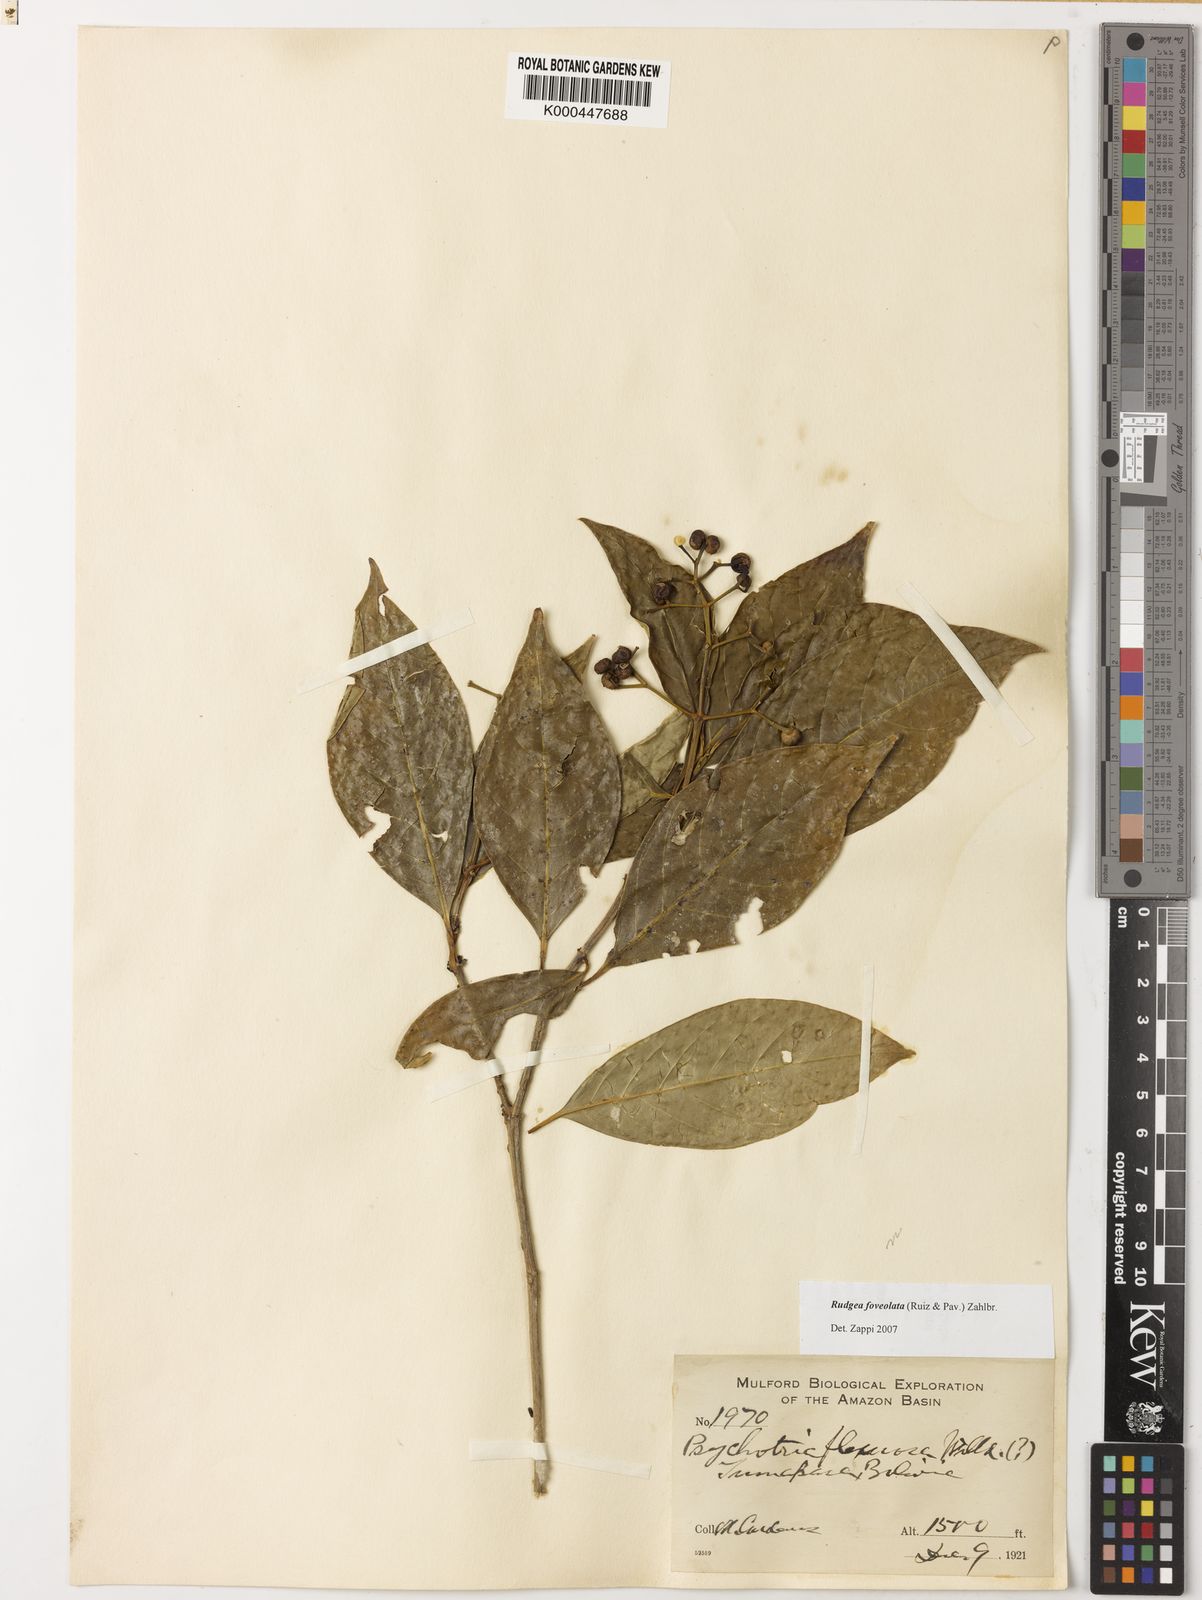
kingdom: Plantae
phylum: Tracheophyta
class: Magnoliopsida
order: Gentianales
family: Rubiaceae
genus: Rudgea
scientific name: Rudgea foveolata
